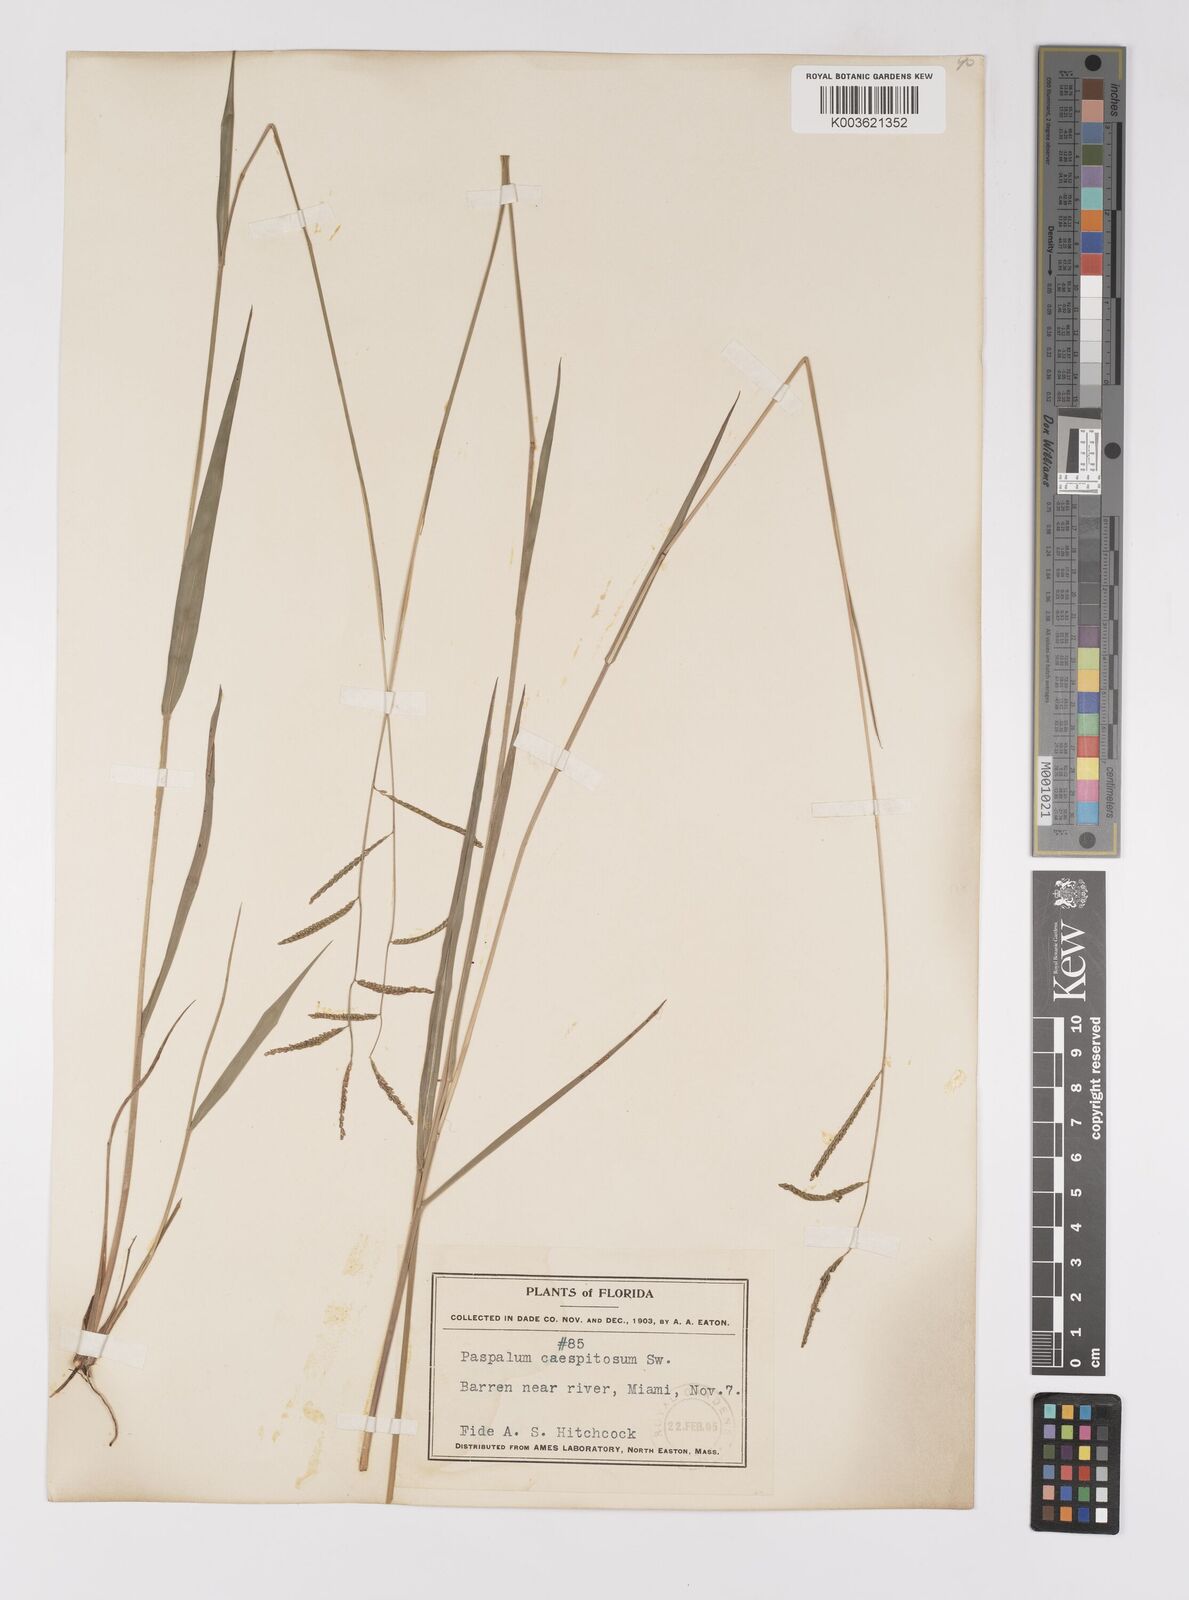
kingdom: Plantae
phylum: Tracheophyta
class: Liliopsida
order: Poales
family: Poaceae
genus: Paspalum
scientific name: Paspalum caespitosum
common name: Blue crowngrass
